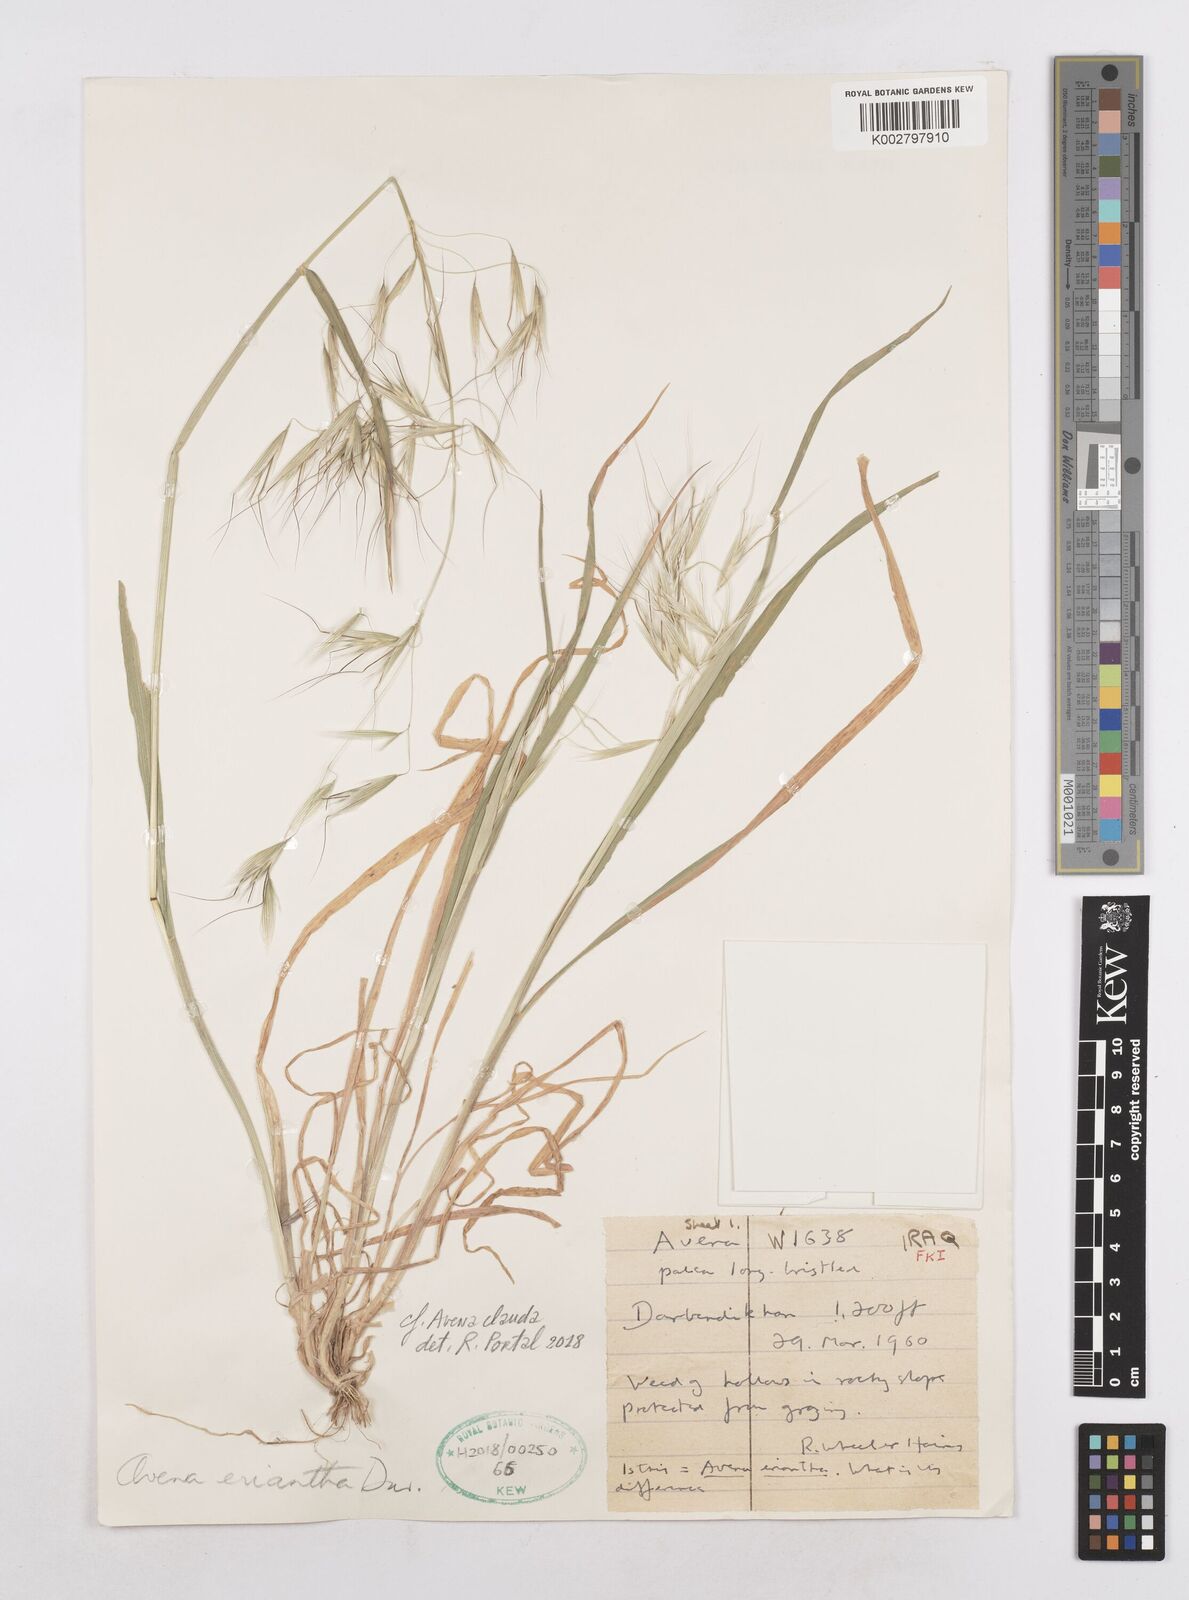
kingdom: Plantae
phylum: Tracheophyta
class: Liliopsida
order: Poales
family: Poaceae
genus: Avena
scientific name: Avena eriantha
